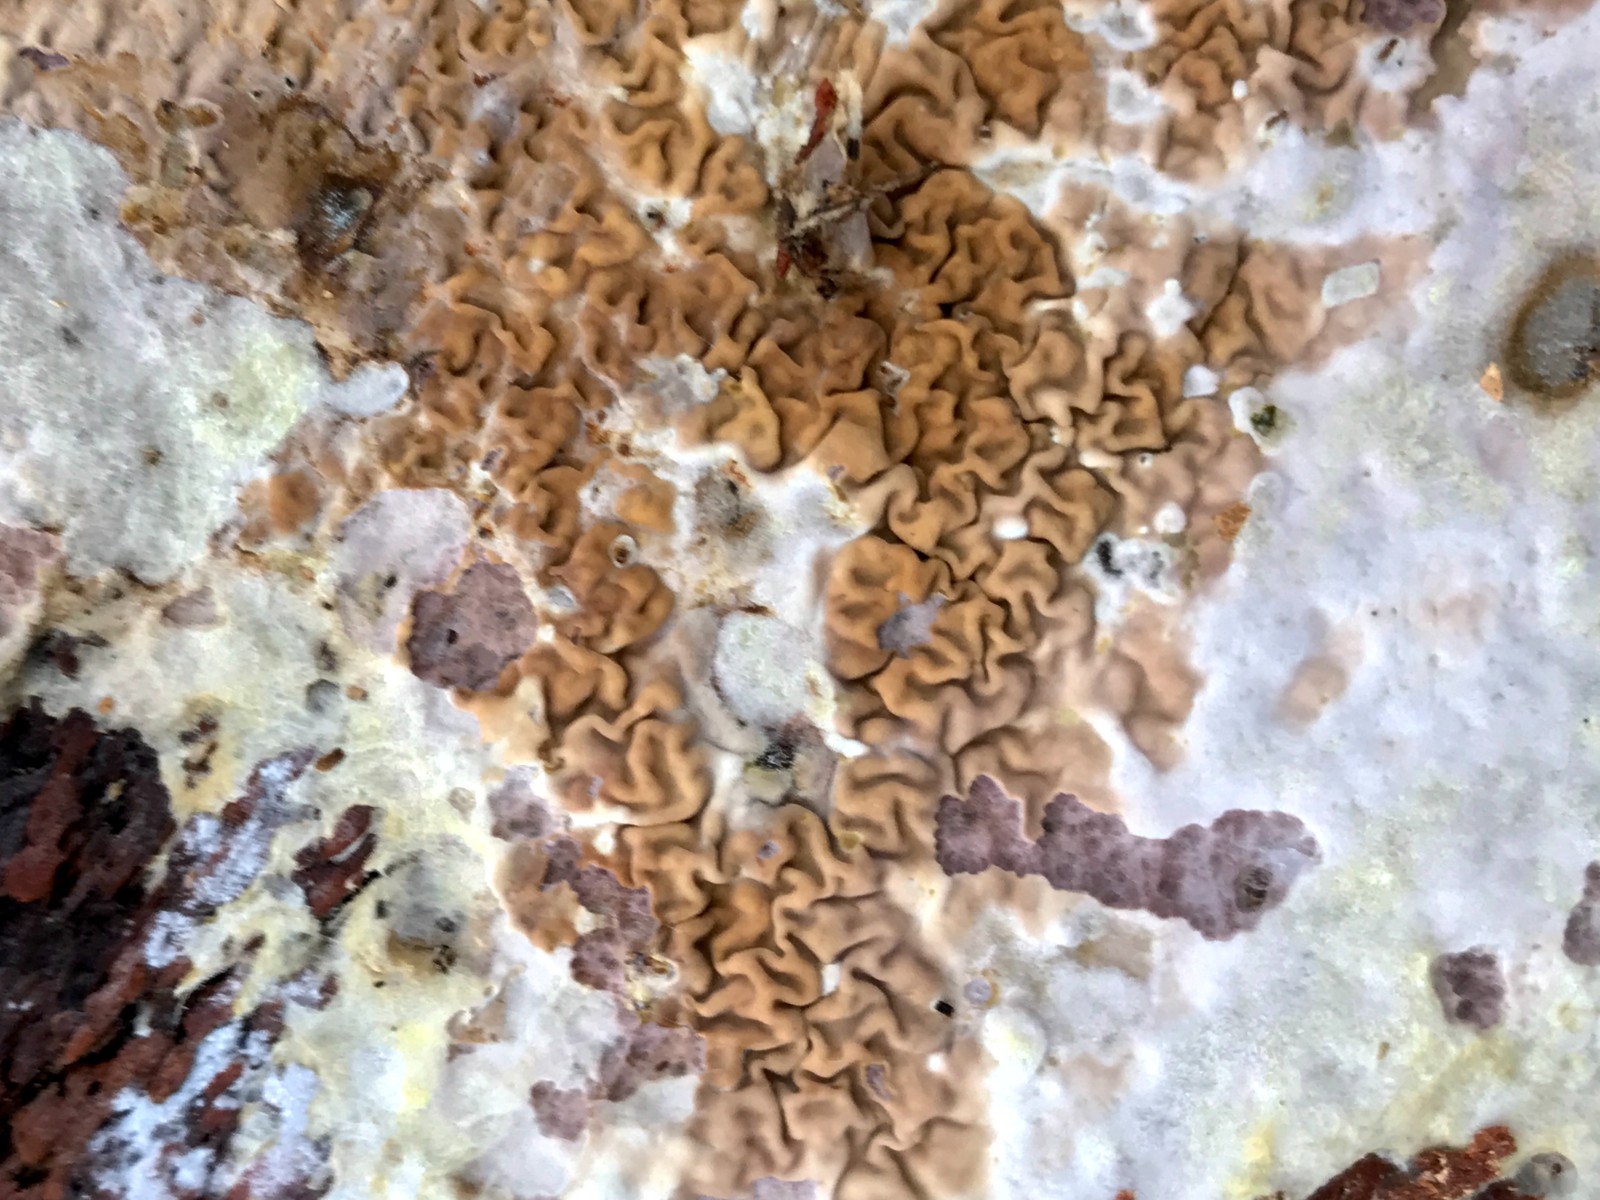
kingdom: Fungi
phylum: Basidiomycota
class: Agaricomycetes
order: Boletales
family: Serpulaceae
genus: Serpula
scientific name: Serpula himantioides
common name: tyndkødet hussvamp
